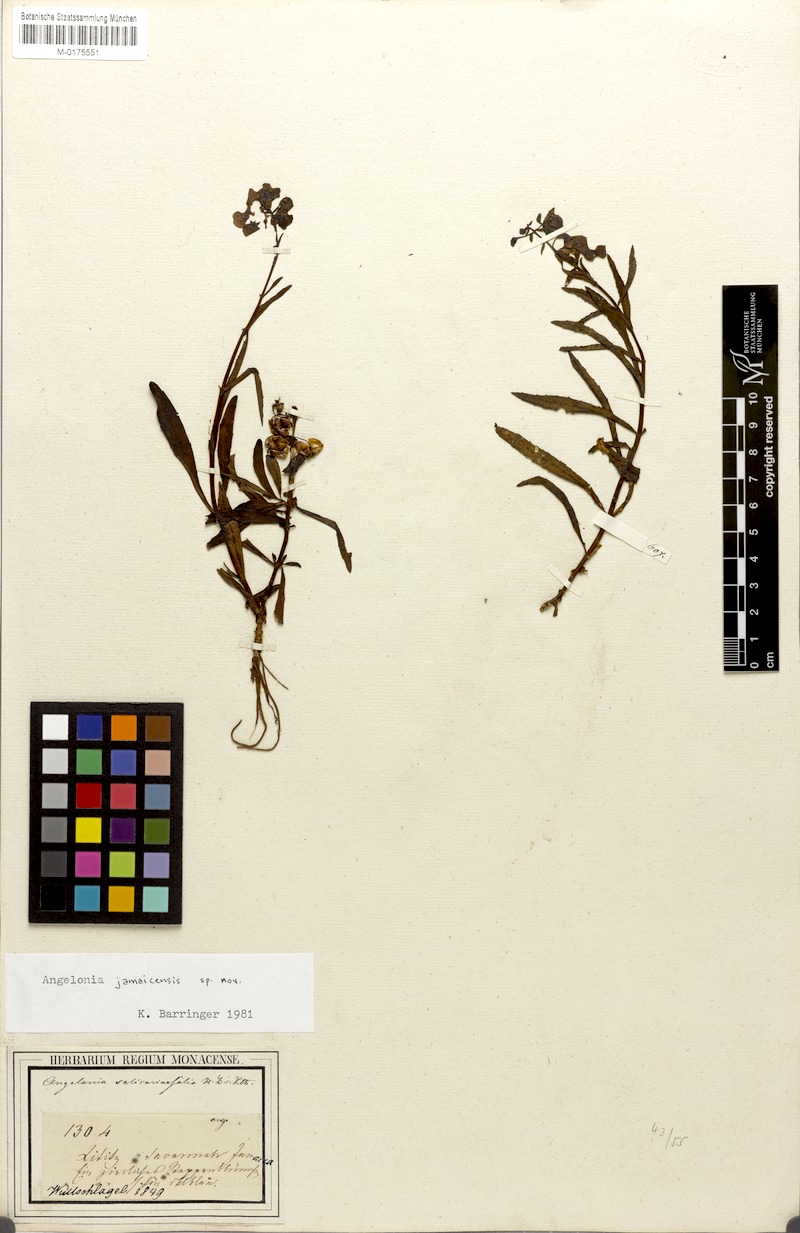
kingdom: Plantae
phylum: Tracheophyta
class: Magnoliopsida
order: Lamiales
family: Plantaginaceae
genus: Angelonia
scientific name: Angelonia
